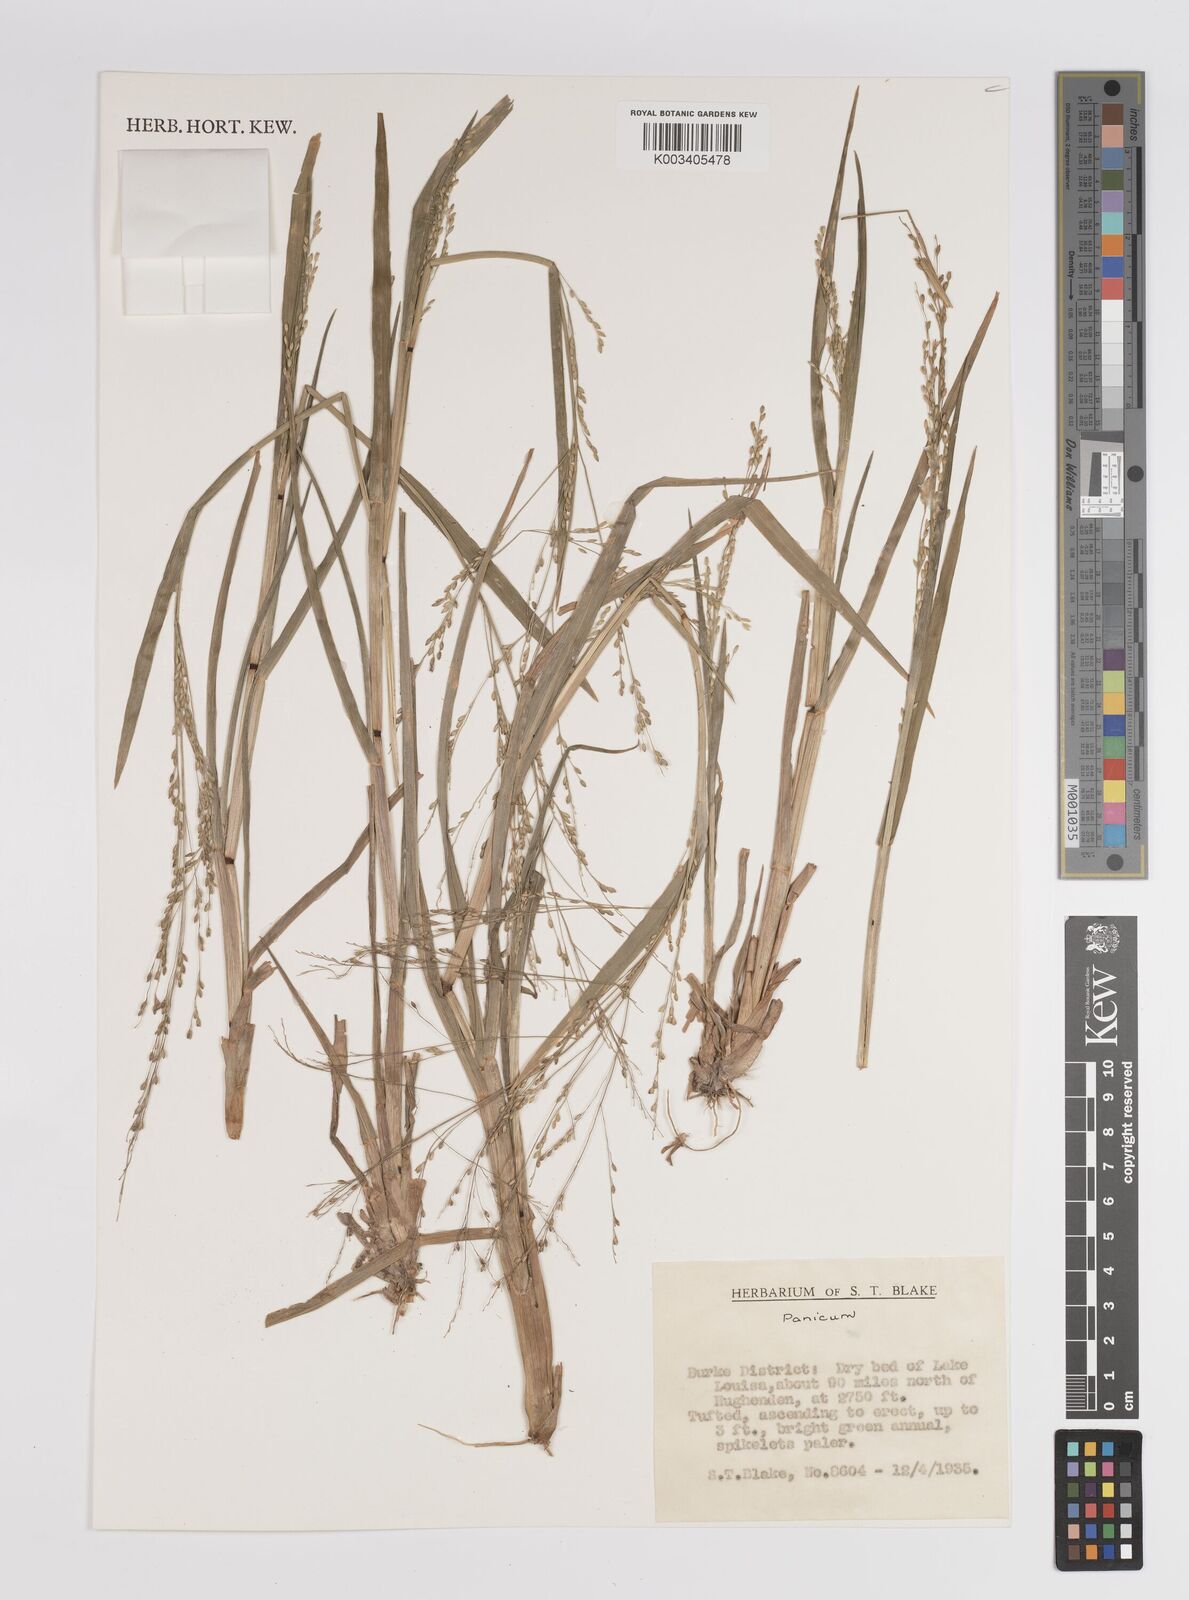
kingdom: Plantae
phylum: Tracheophyta
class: Liliopsida
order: Poales
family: Poaceae
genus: Panicum
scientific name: Panicum
